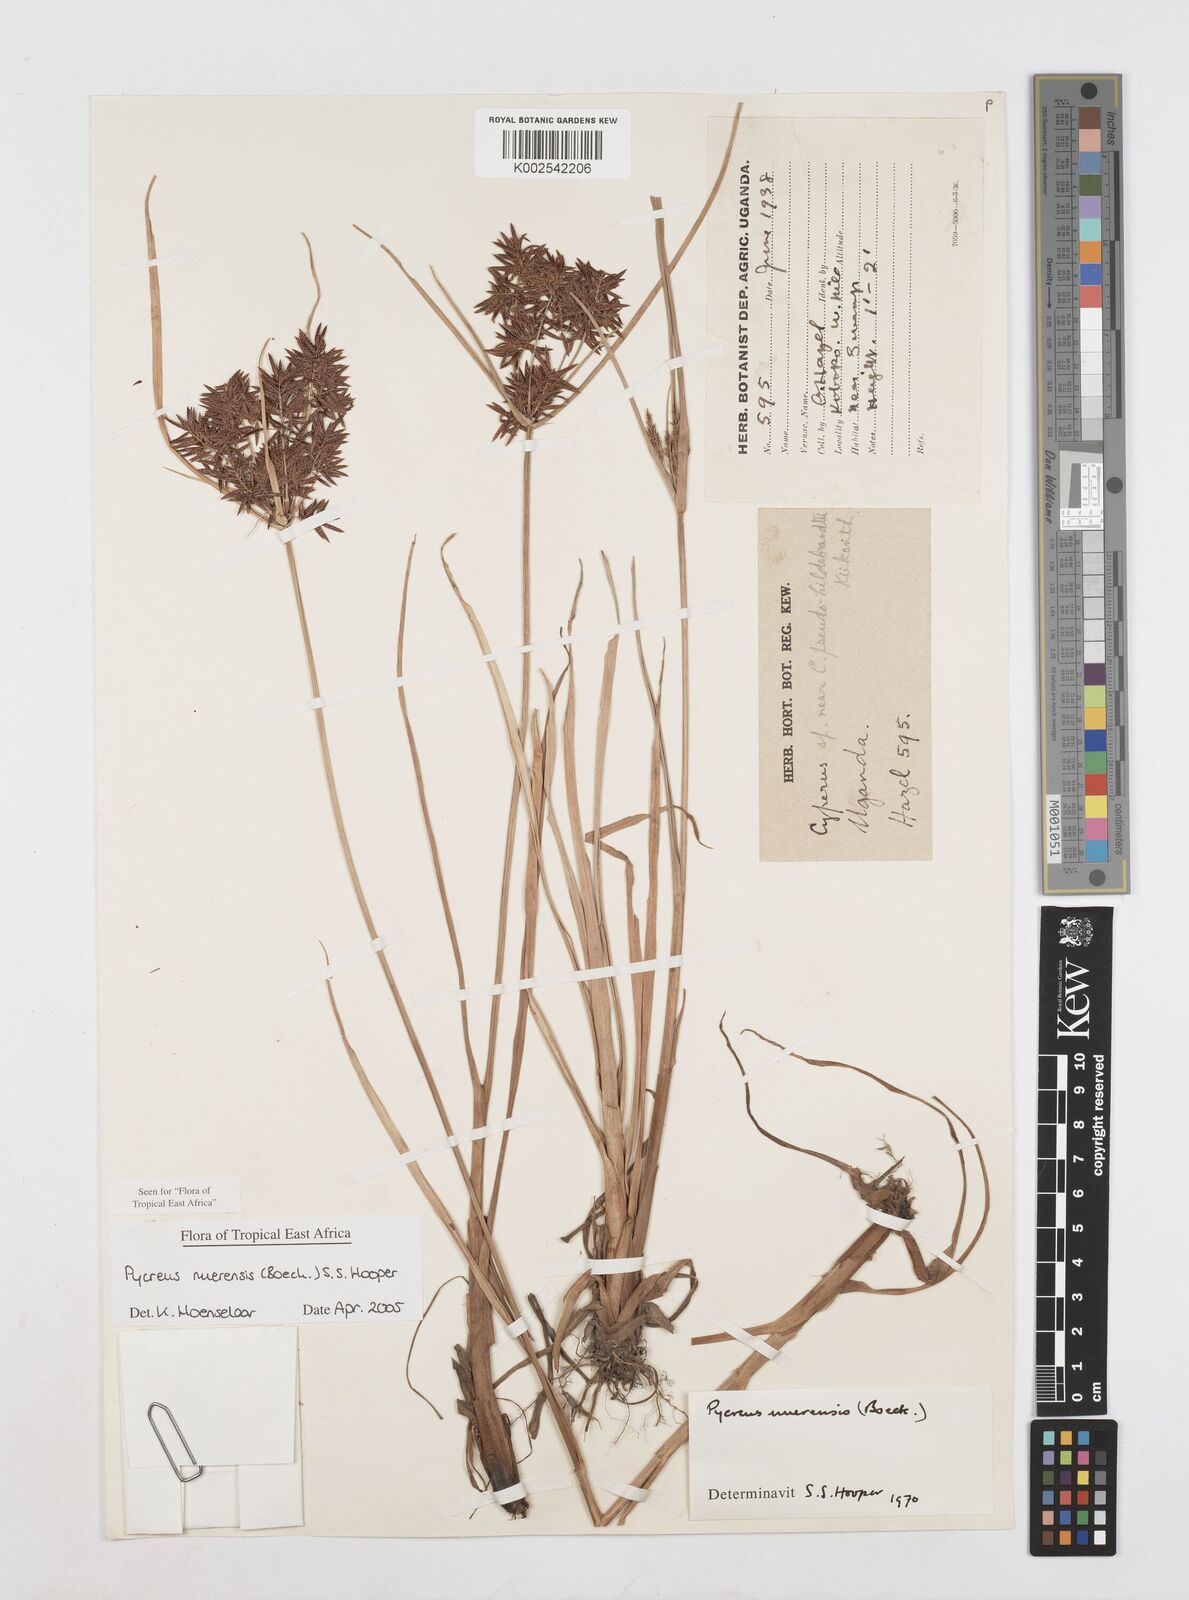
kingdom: Plantae
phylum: Tracheophyta
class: Liliopsida
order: Poales
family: Cyperaceae
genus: Cyperus
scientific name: Cyperus nuerensis
